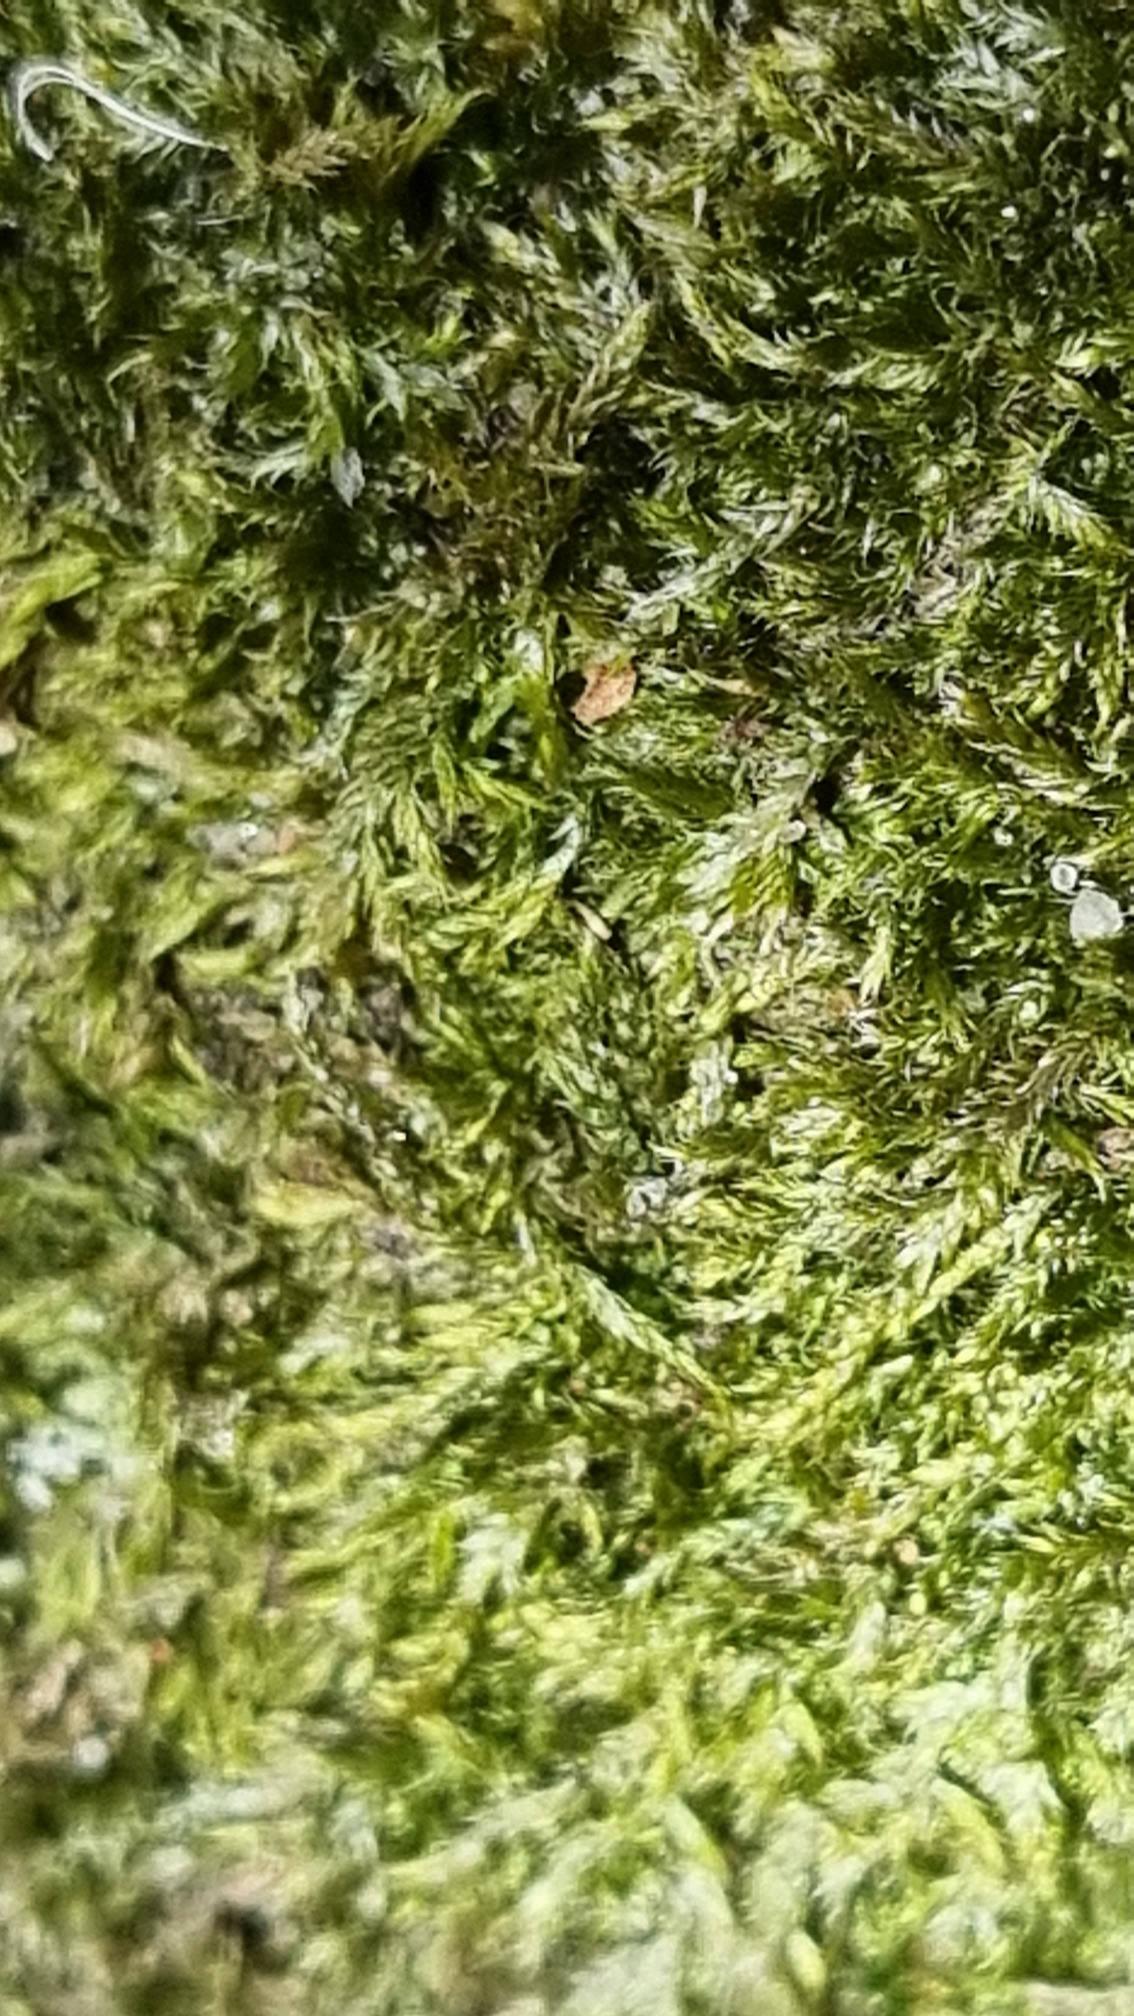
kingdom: Plantae
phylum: Bryophyta
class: Bryopsida
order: Hypnales
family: Hypnaceae
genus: Hypnum
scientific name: Hypnum
